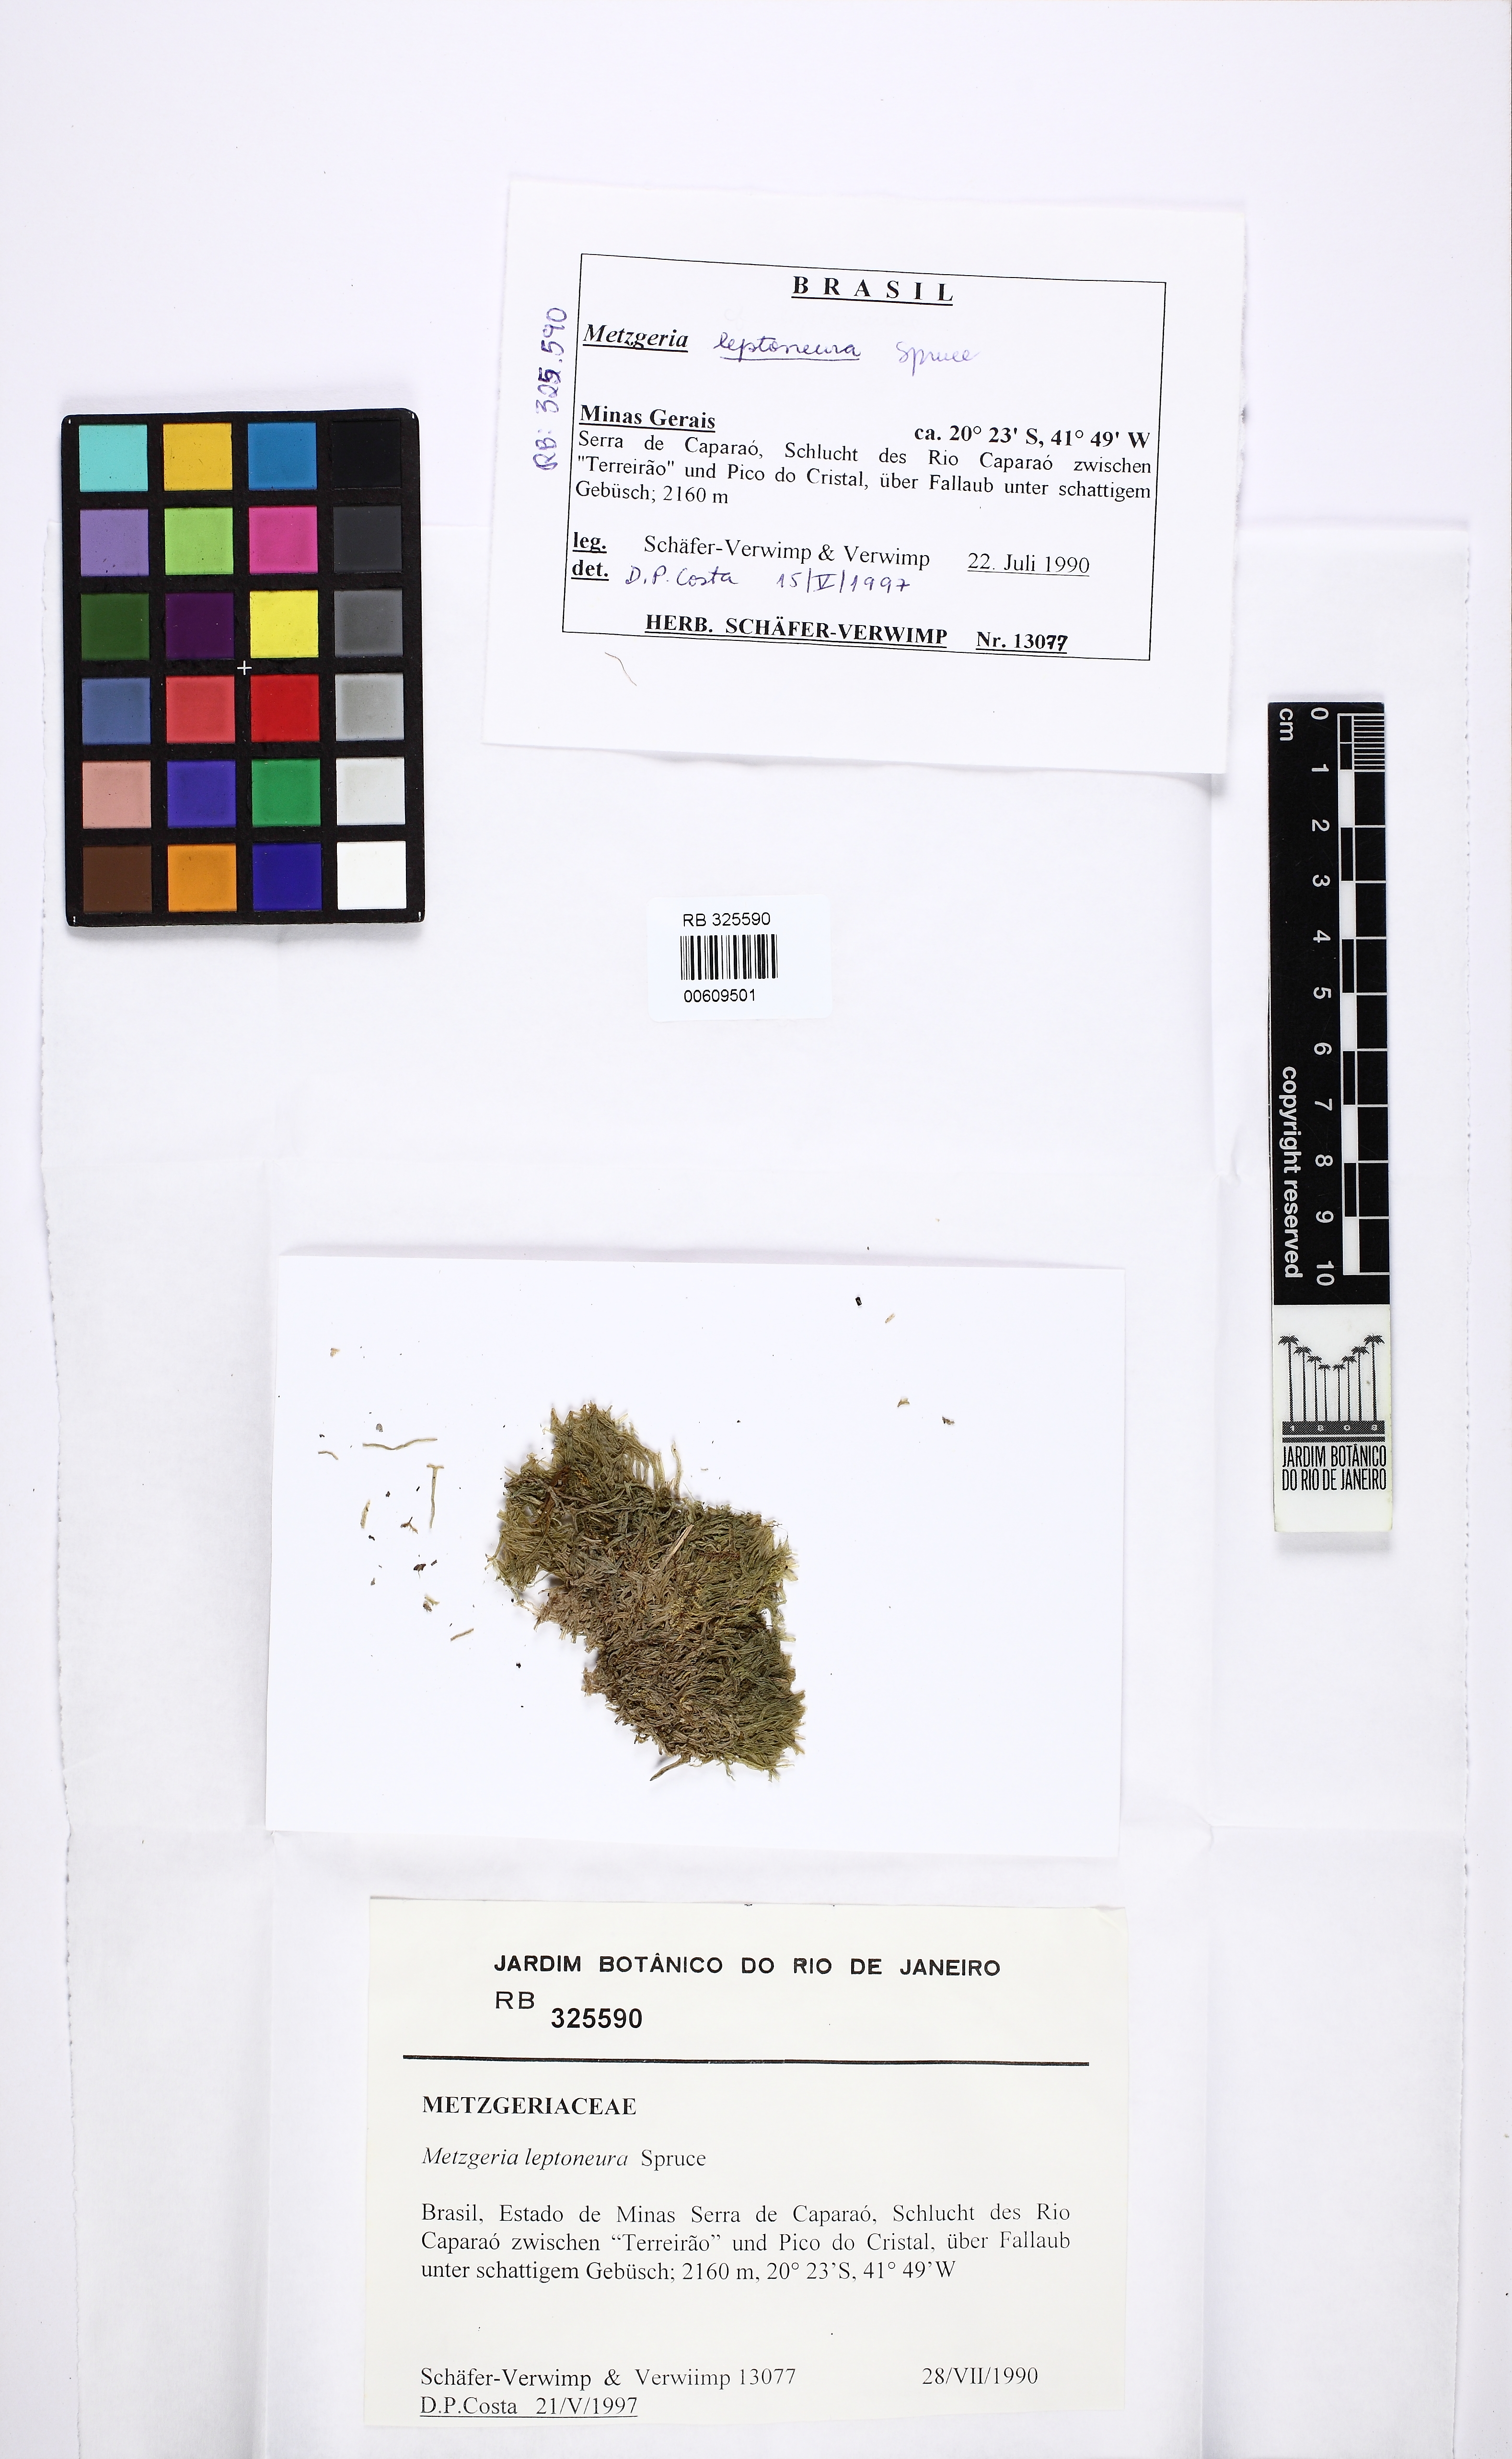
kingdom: Plantae
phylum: Marchantiophyta
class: Jungermanniopsida
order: Metzgeriales
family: Metzgeriaceae
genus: Metzgeria
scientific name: Metzgeria leptoneura
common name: Hooked veilwort
